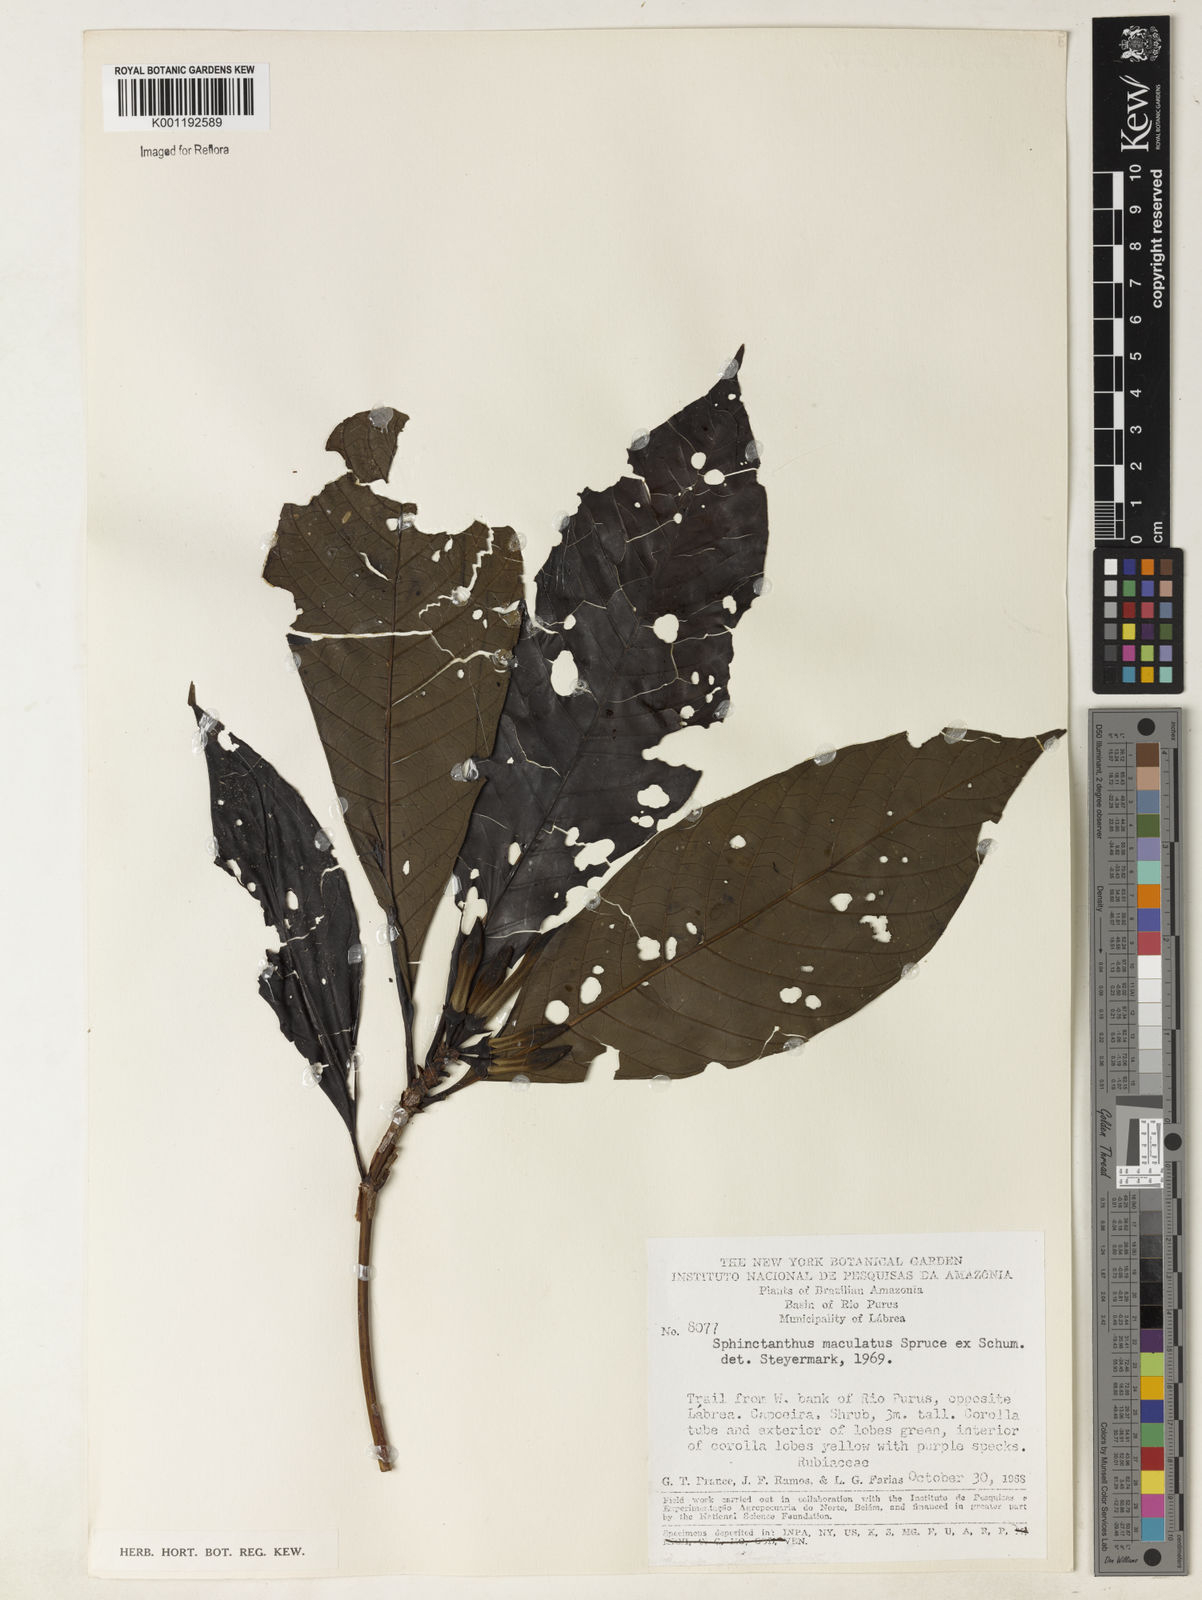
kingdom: Plantae
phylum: Tracheophyta
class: Magnoliopsida
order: Gentianales
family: Rubiaceae
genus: Sphinctanthus
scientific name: Sphinctanthus polycarpus
